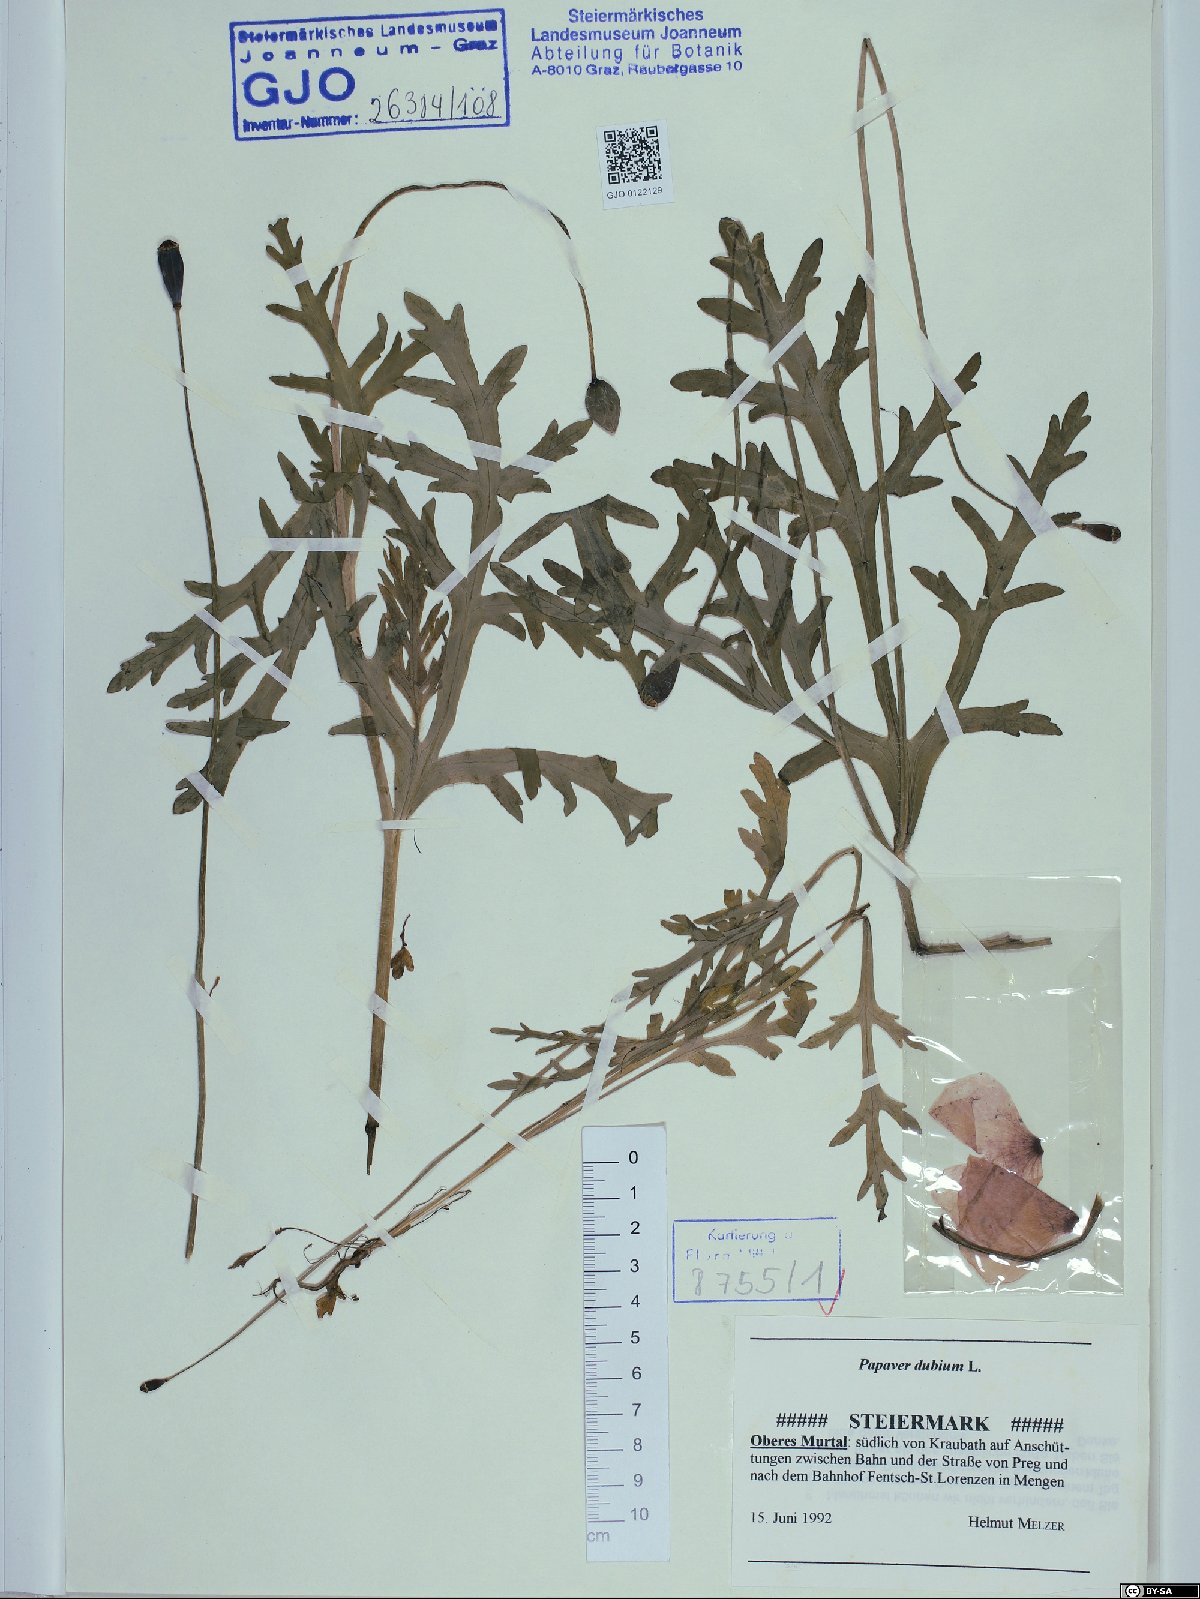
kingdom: Plantae
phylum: Tracheophyta
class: Magnoliopsida
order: Ranunculales
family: Papaveraceae
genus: Papaver
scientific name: Papaver dubium
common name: Long-headed poppy
